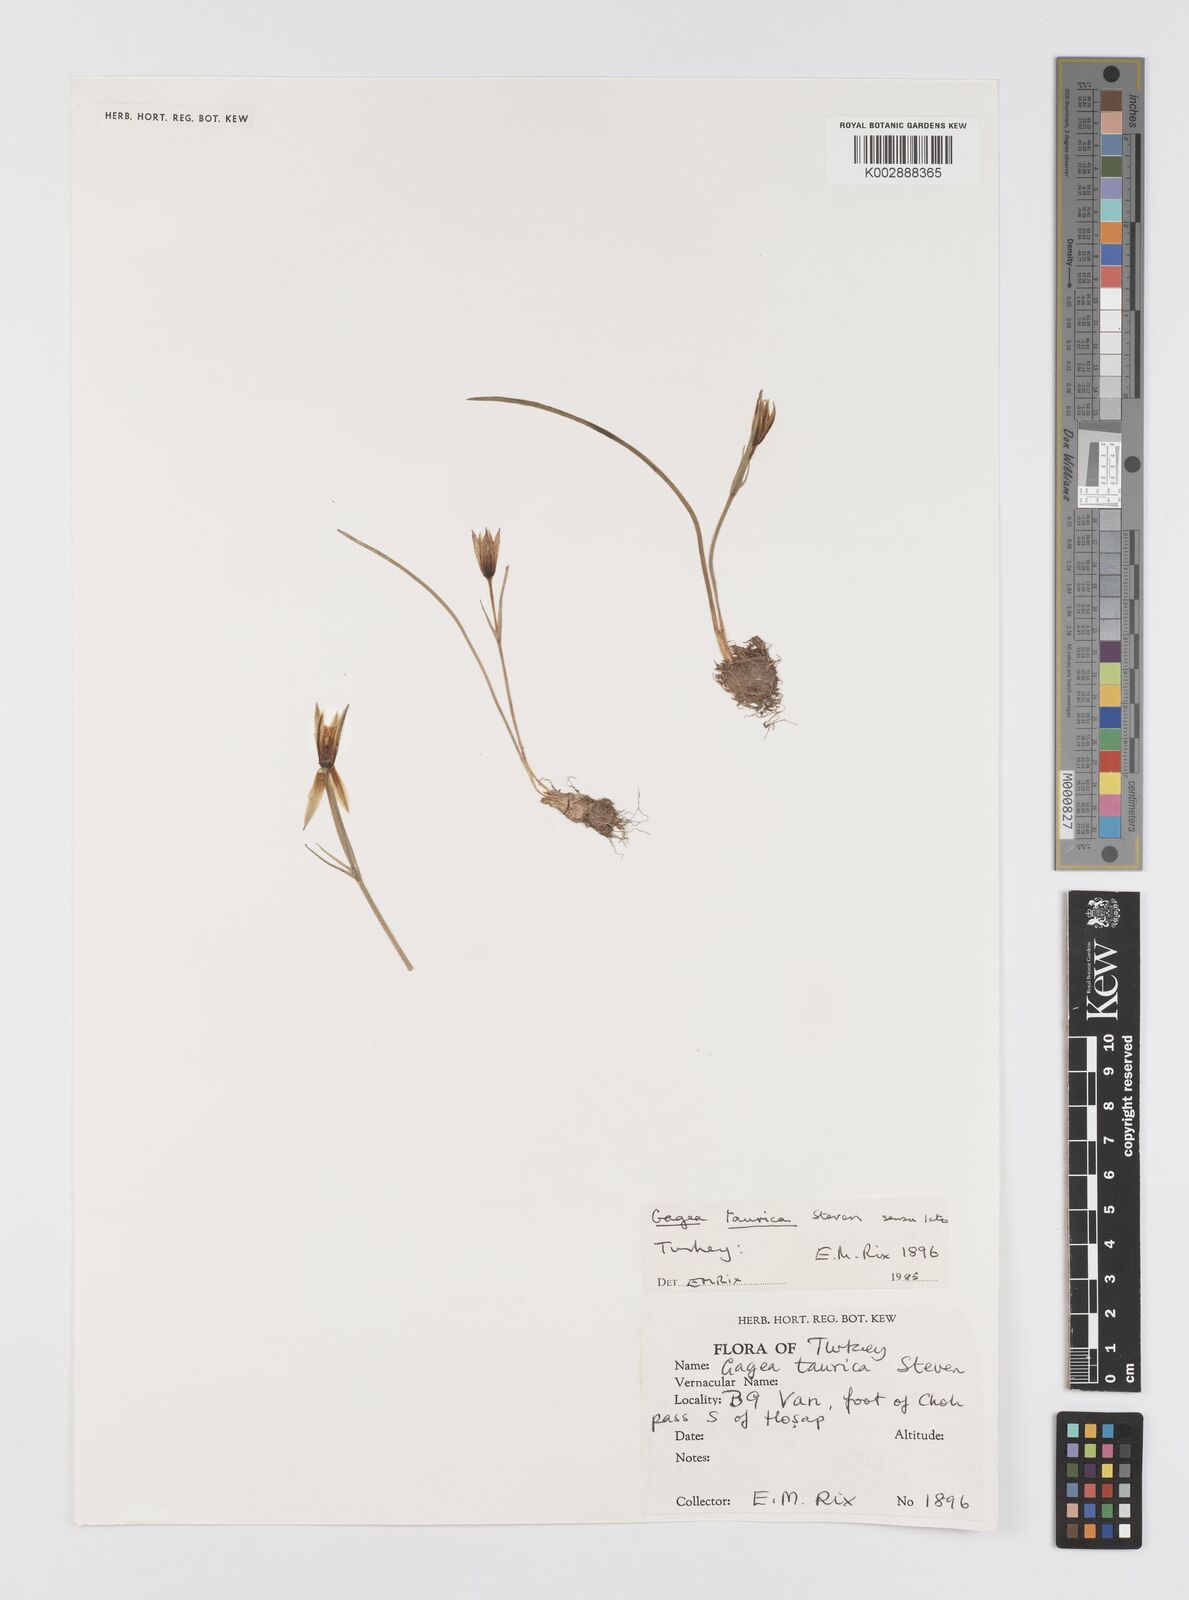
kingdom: Plantae
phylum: Tracheophyta
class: Liliopsida
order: Liliales
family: Liliaceae
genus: Gagea
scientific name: Gagea taurica
